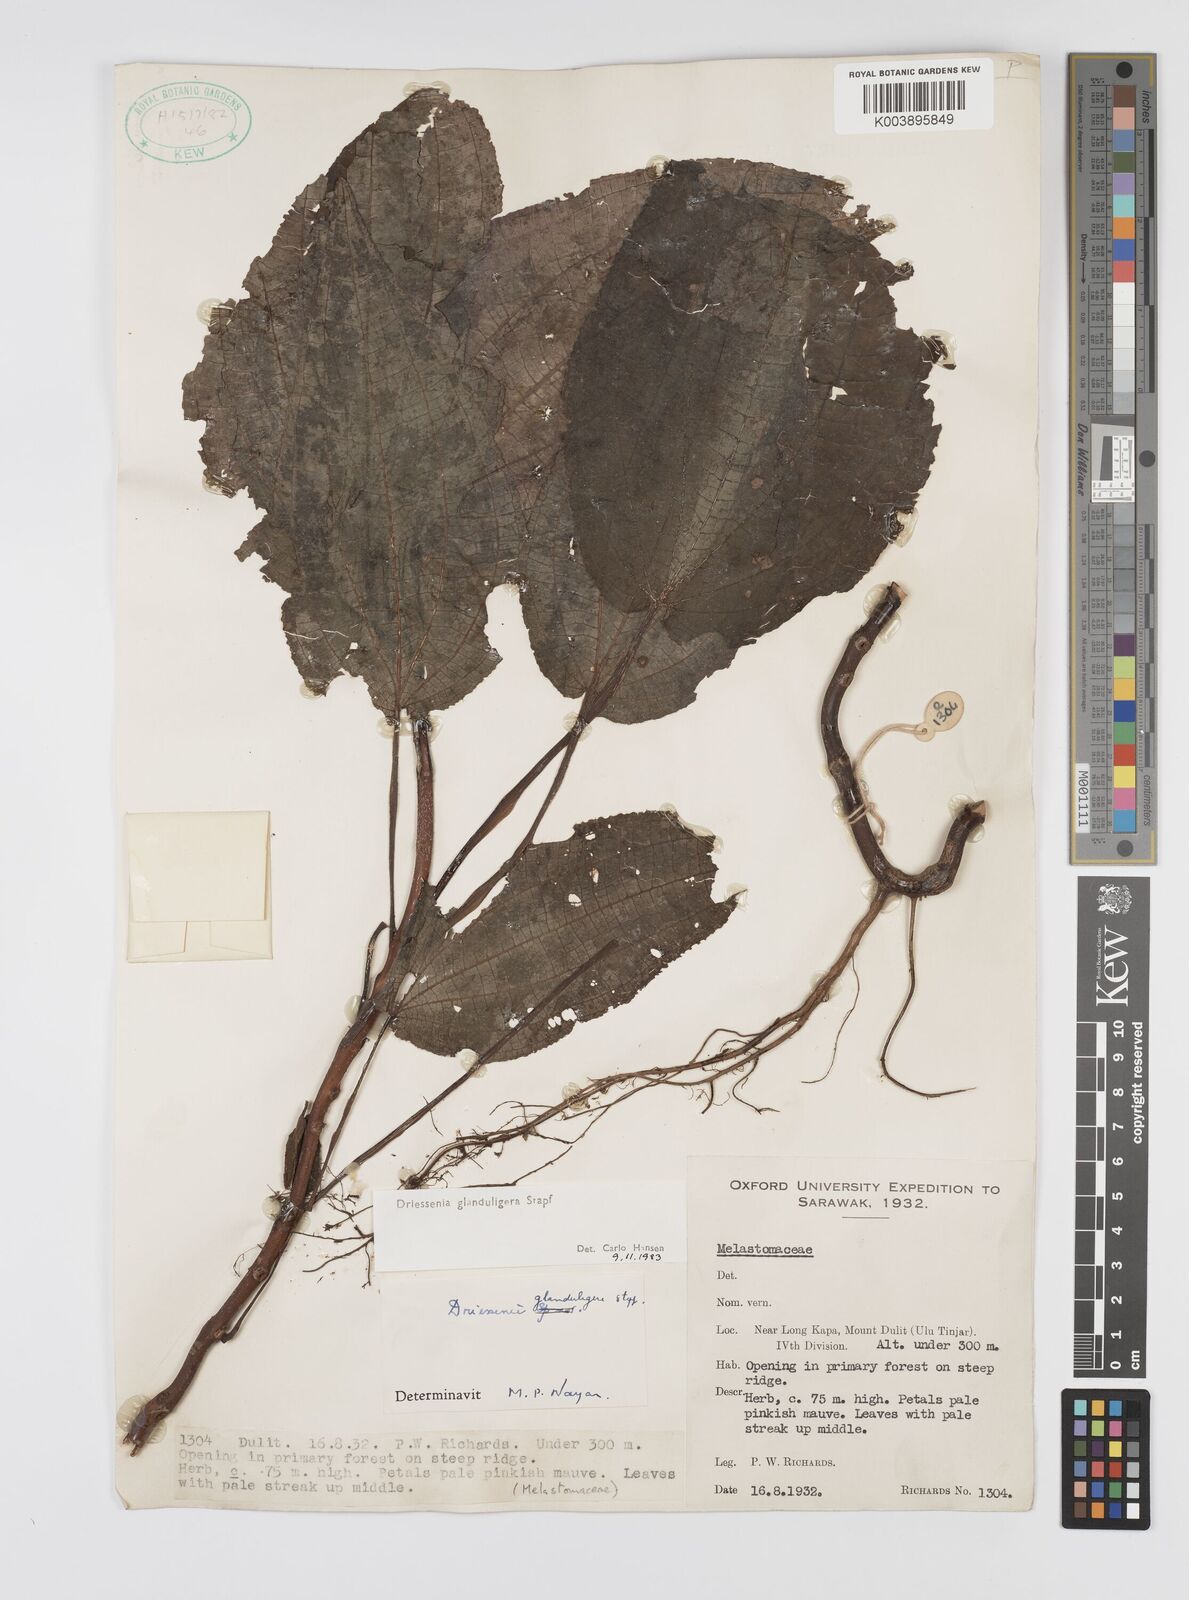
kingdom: Plantae
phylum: Tracheophyta
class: Magnoliopsida
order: Myrtales
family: Melastomataceae
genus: Driessenia
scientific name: Driessenia glanduligera
